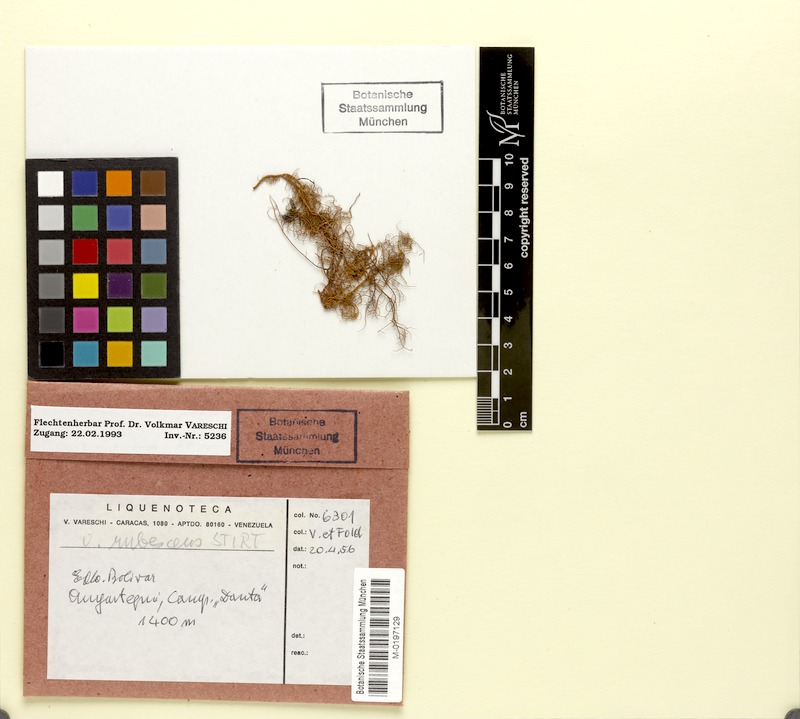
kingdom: Fungi
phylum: Ascomycota
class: Lecanoromycetes
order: Lecanorales
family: Parmeliaceae
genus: Usnea
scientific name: Usnea rubrotincta
